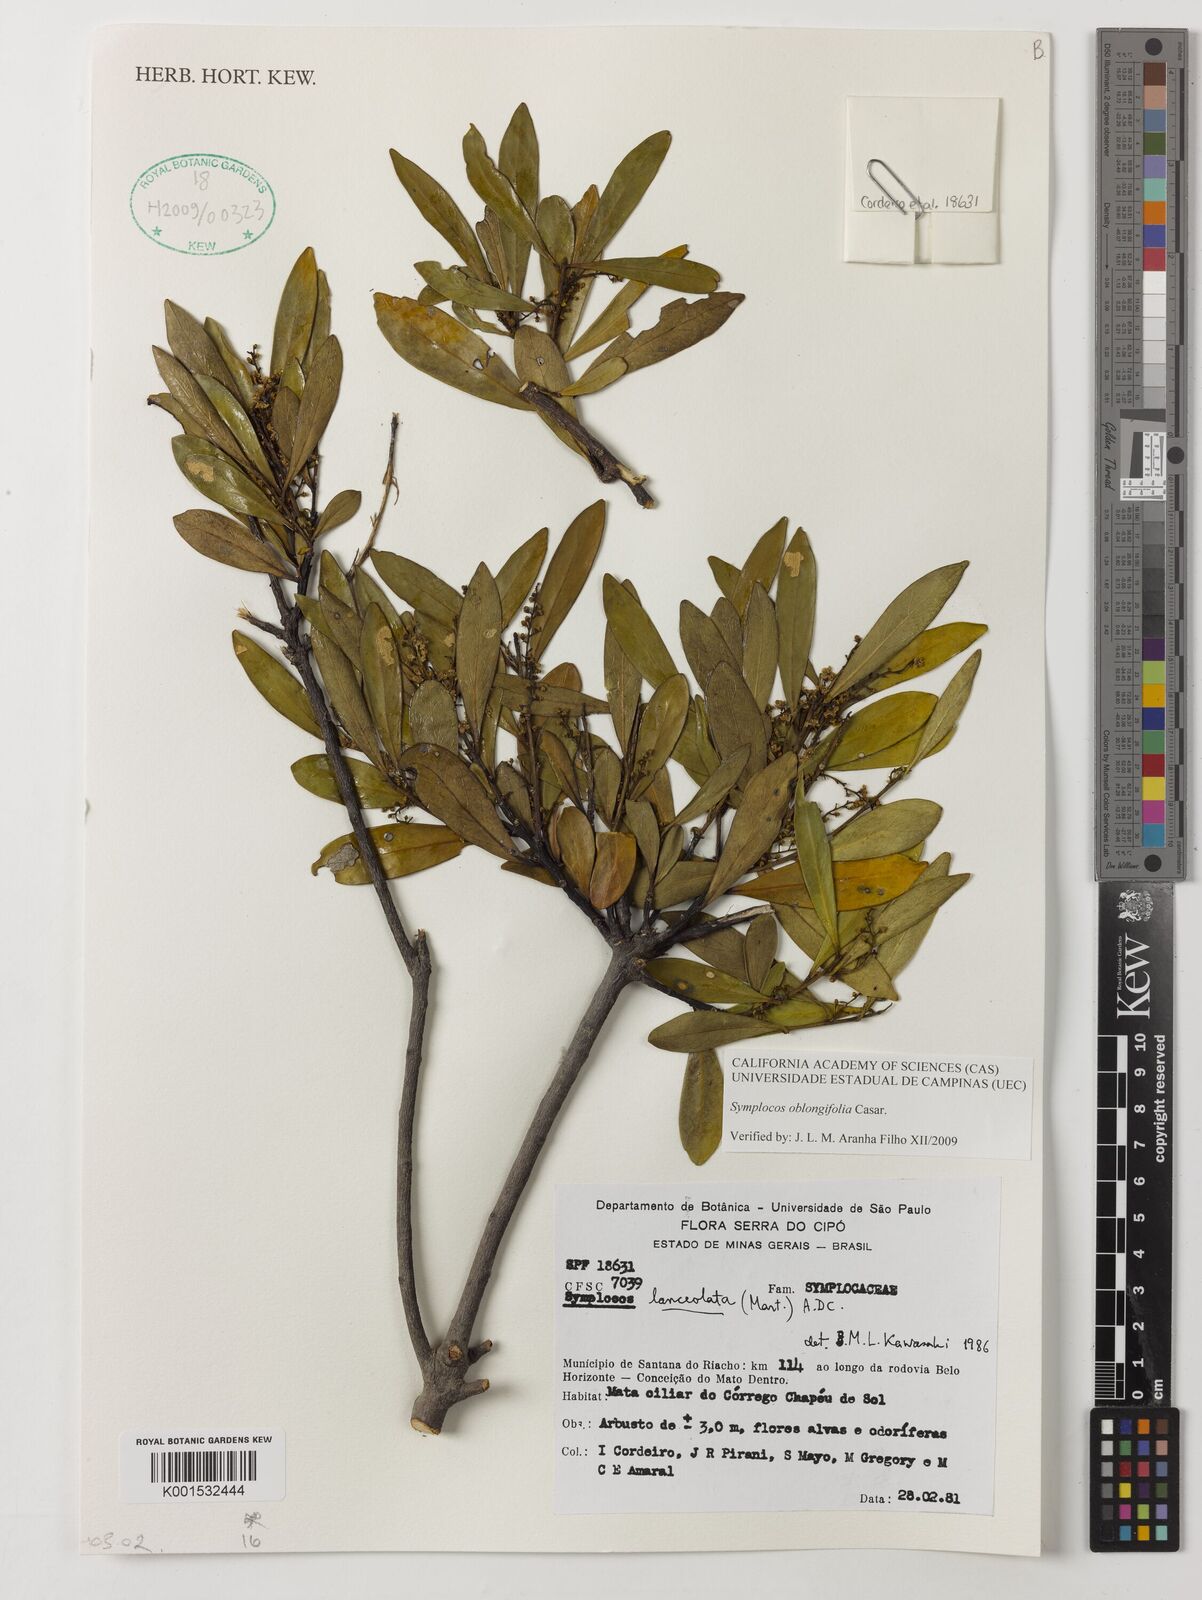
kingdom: Plantae
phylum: Tracheophyta
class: Magnoliopsida
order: Ericales
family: Symplocaceae
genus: Symplocos
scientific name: Symplocos oblongifolia
